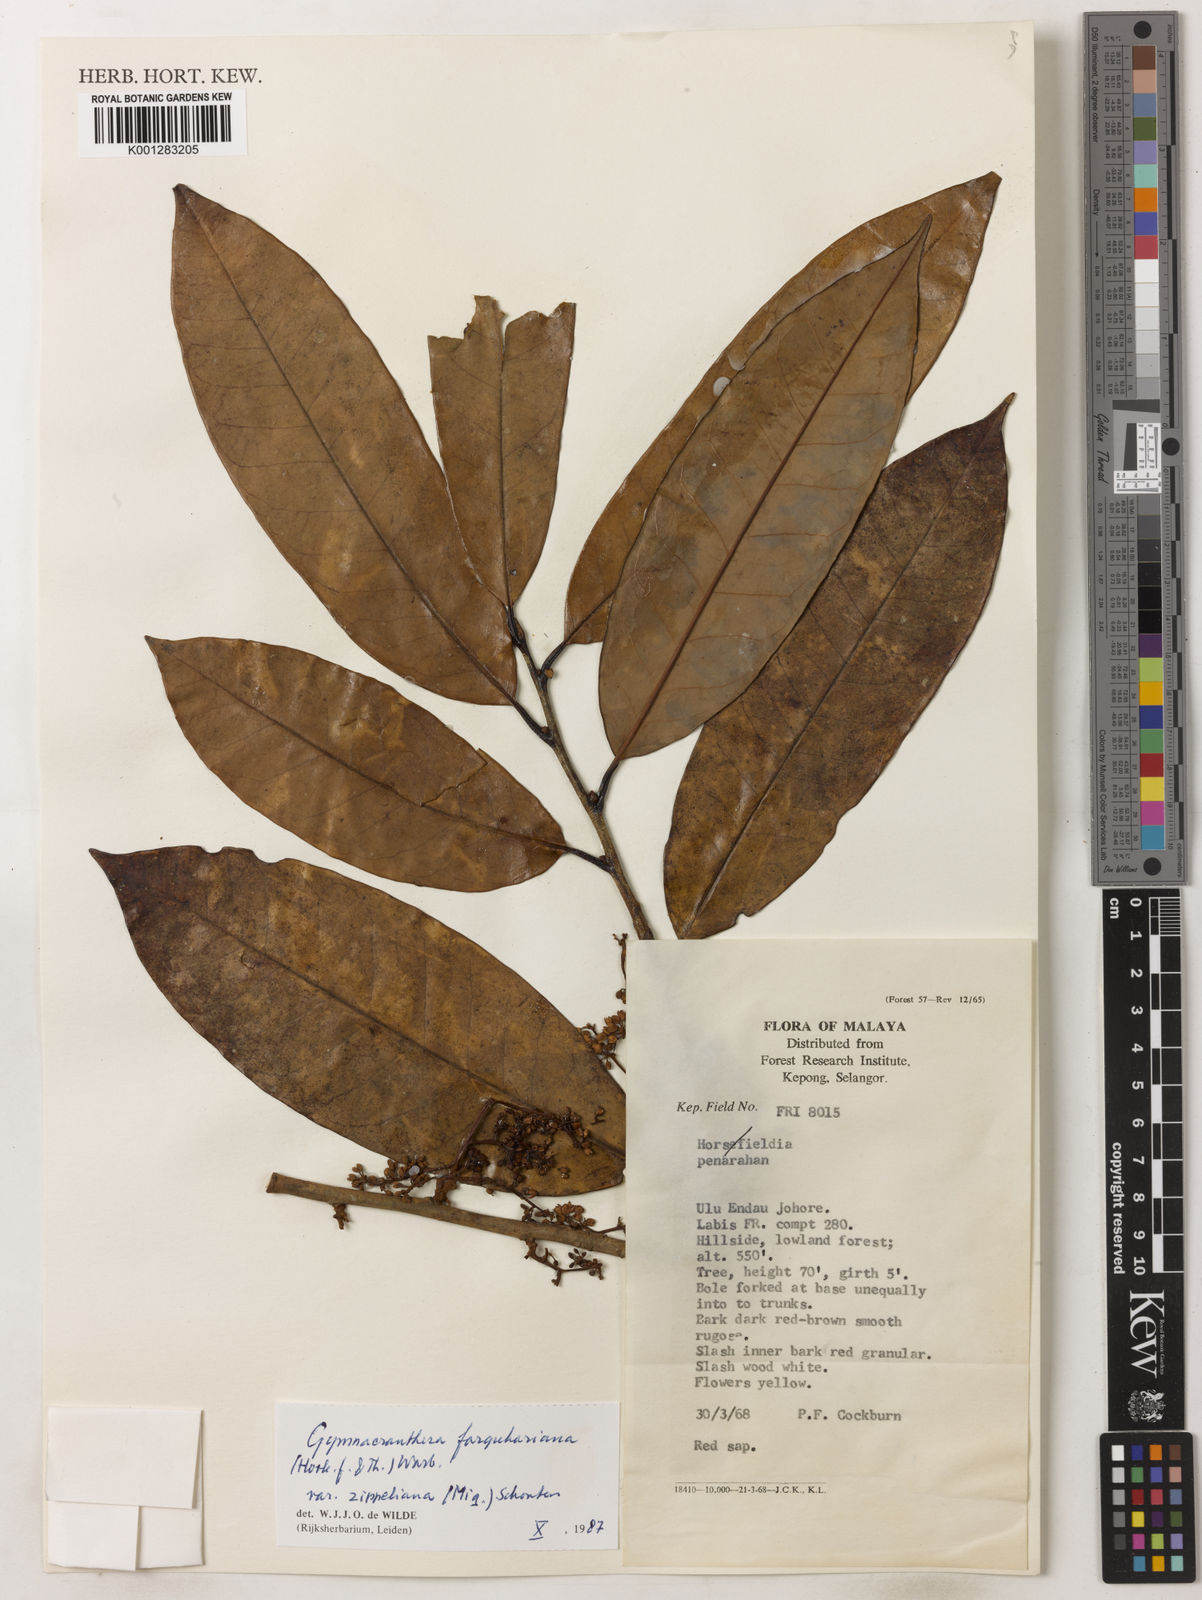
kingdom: Plantae
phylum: Tracheophyta
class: Magnoliopsida
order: Magnoliales
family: Myristicaceae
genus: Gymnacranthera
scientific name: Gymnacranthera farquhariana
